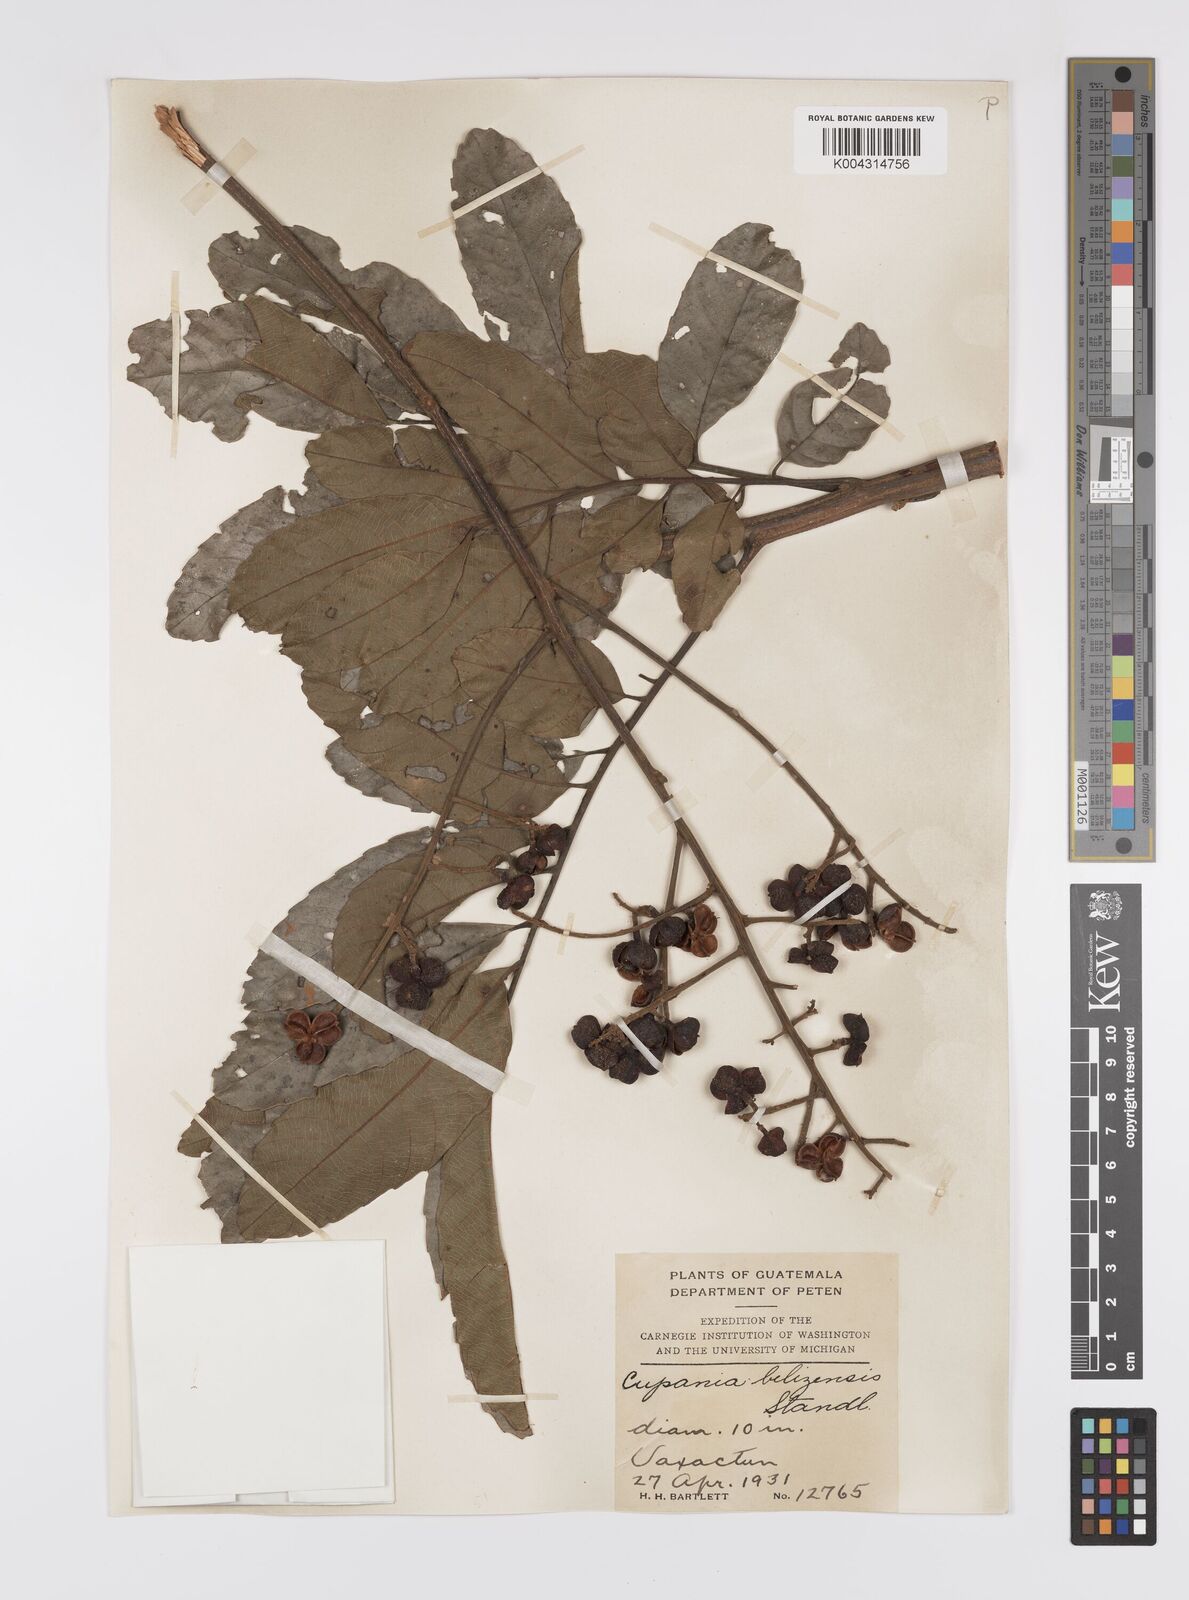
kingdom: Plantae
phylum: Tracheophyta
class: Magnoliopsida
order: Sapindales
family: Sapindaceae
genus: Cupania
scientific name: Cupania belizensis
